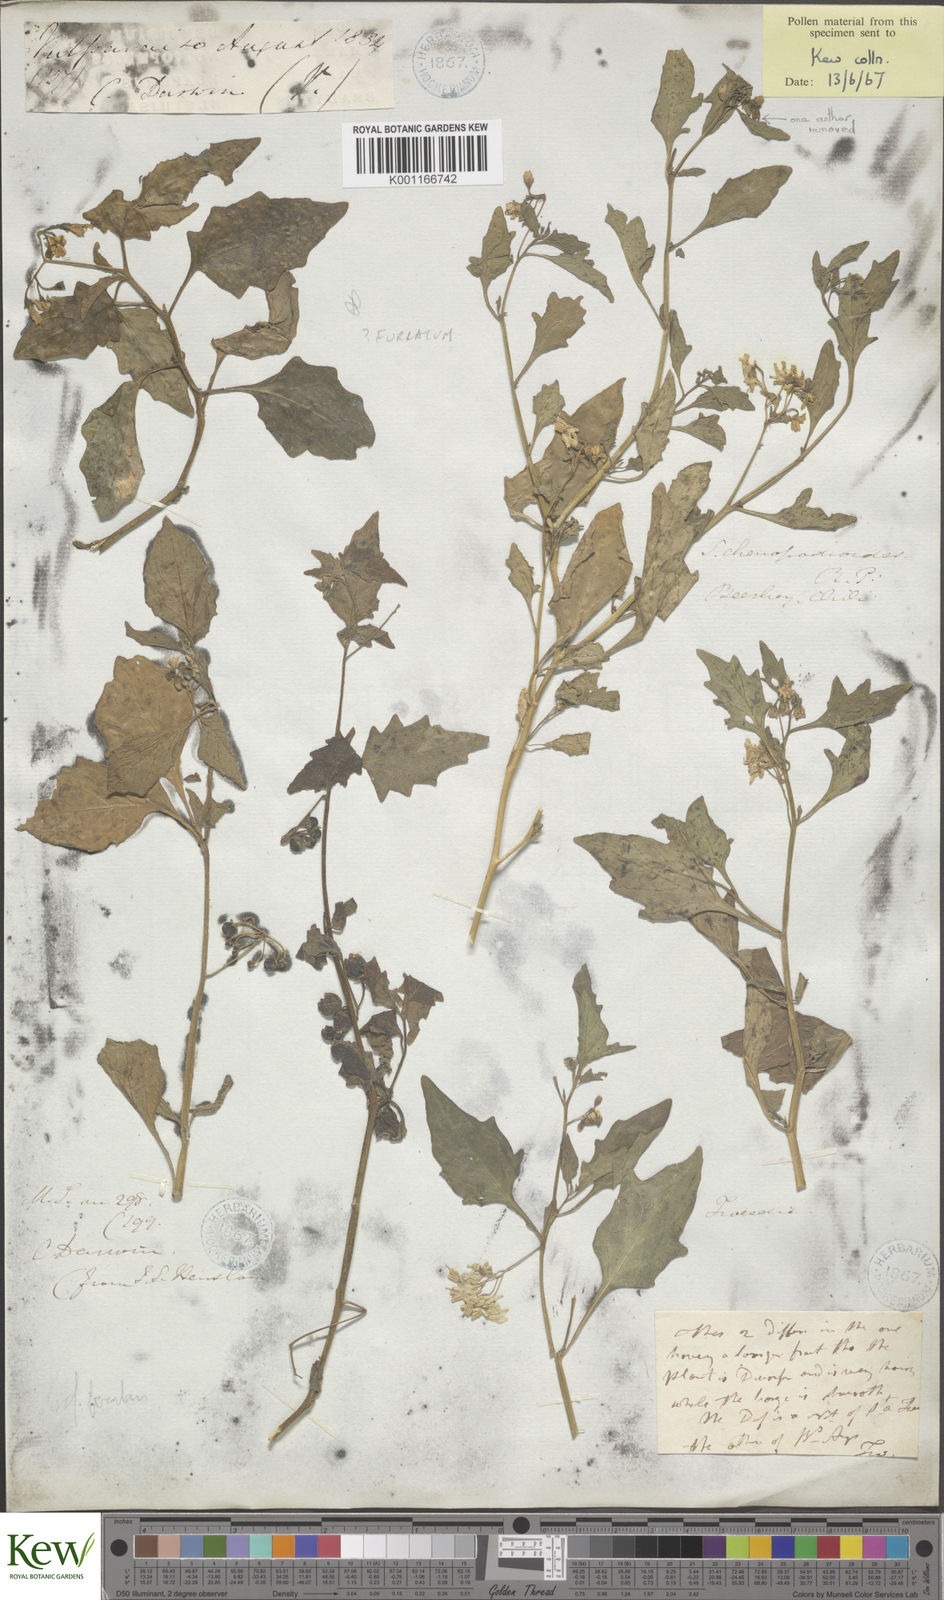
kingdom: Plantae
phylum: Tracheophyta
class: Magnoliopsida
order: Solanales
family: Solanaceae
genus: Solanum
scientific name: Solanum
